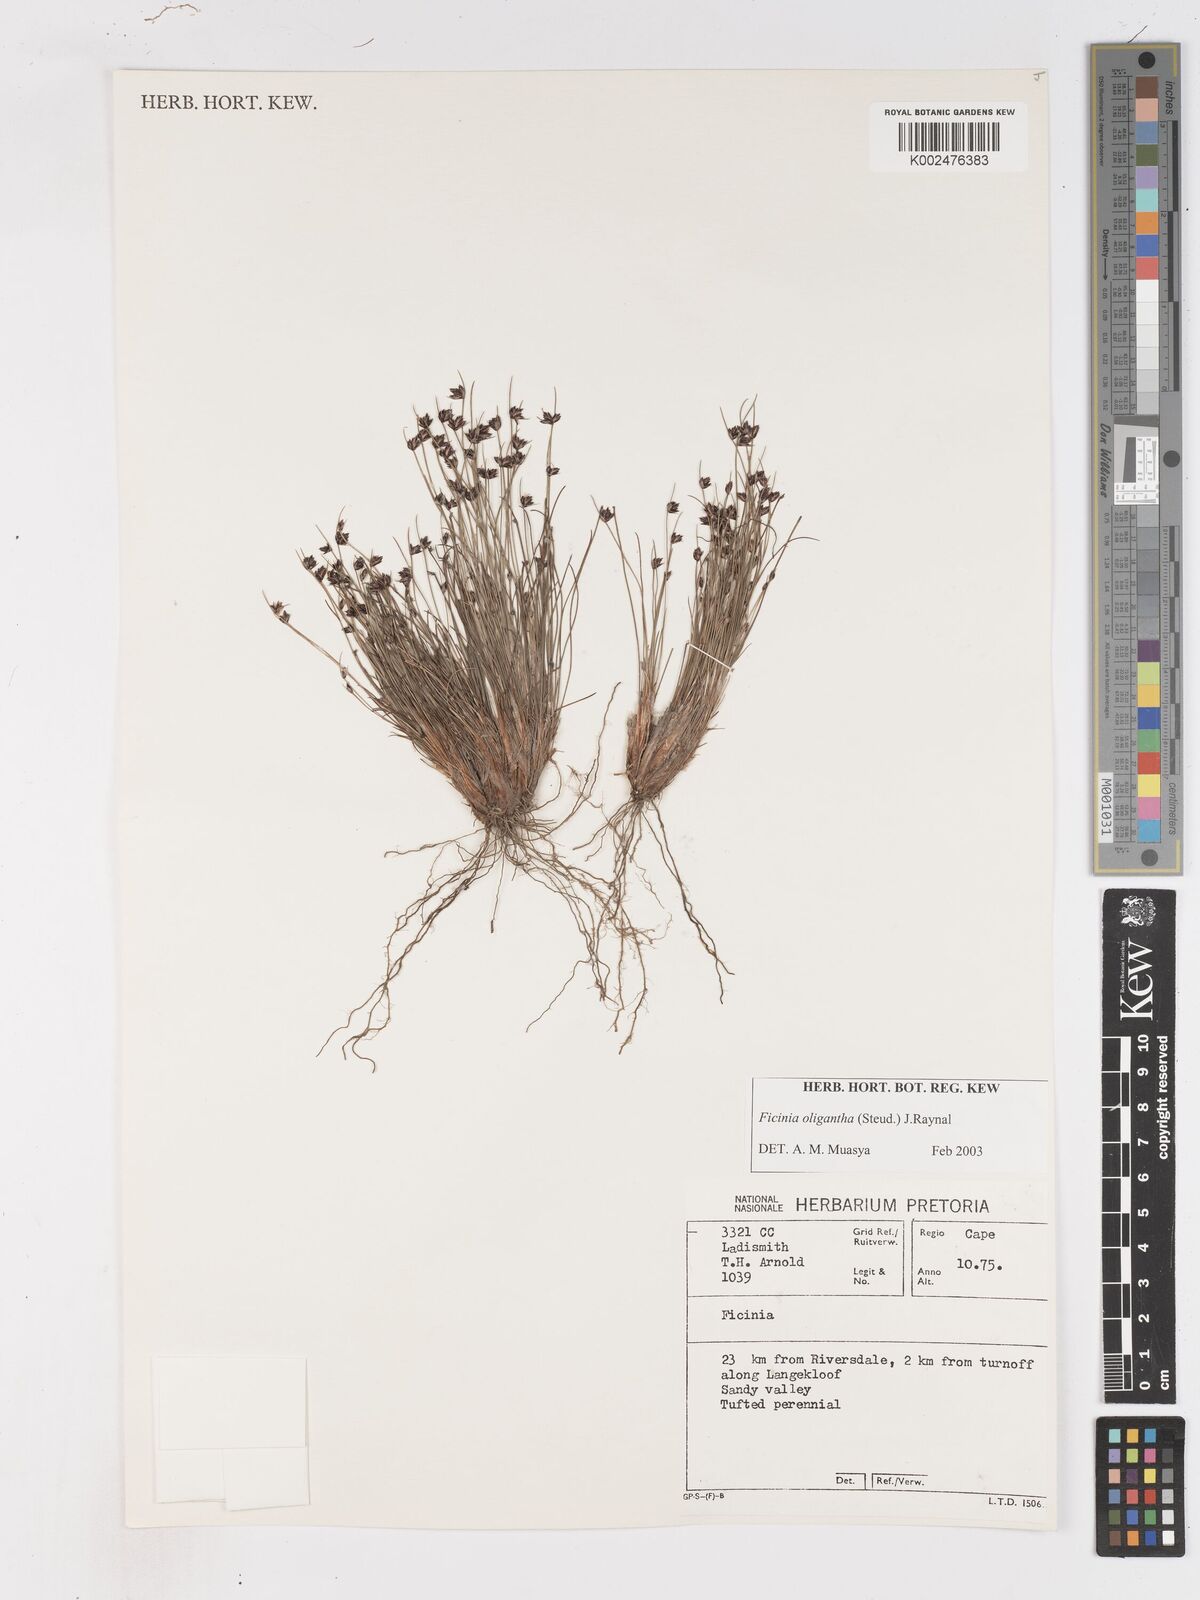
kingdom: Plantae
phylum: Tracheophyta
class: Liliopsida
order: Poales
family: Cyperaceae
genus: Ficinia
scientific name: Ficinia oligantha
